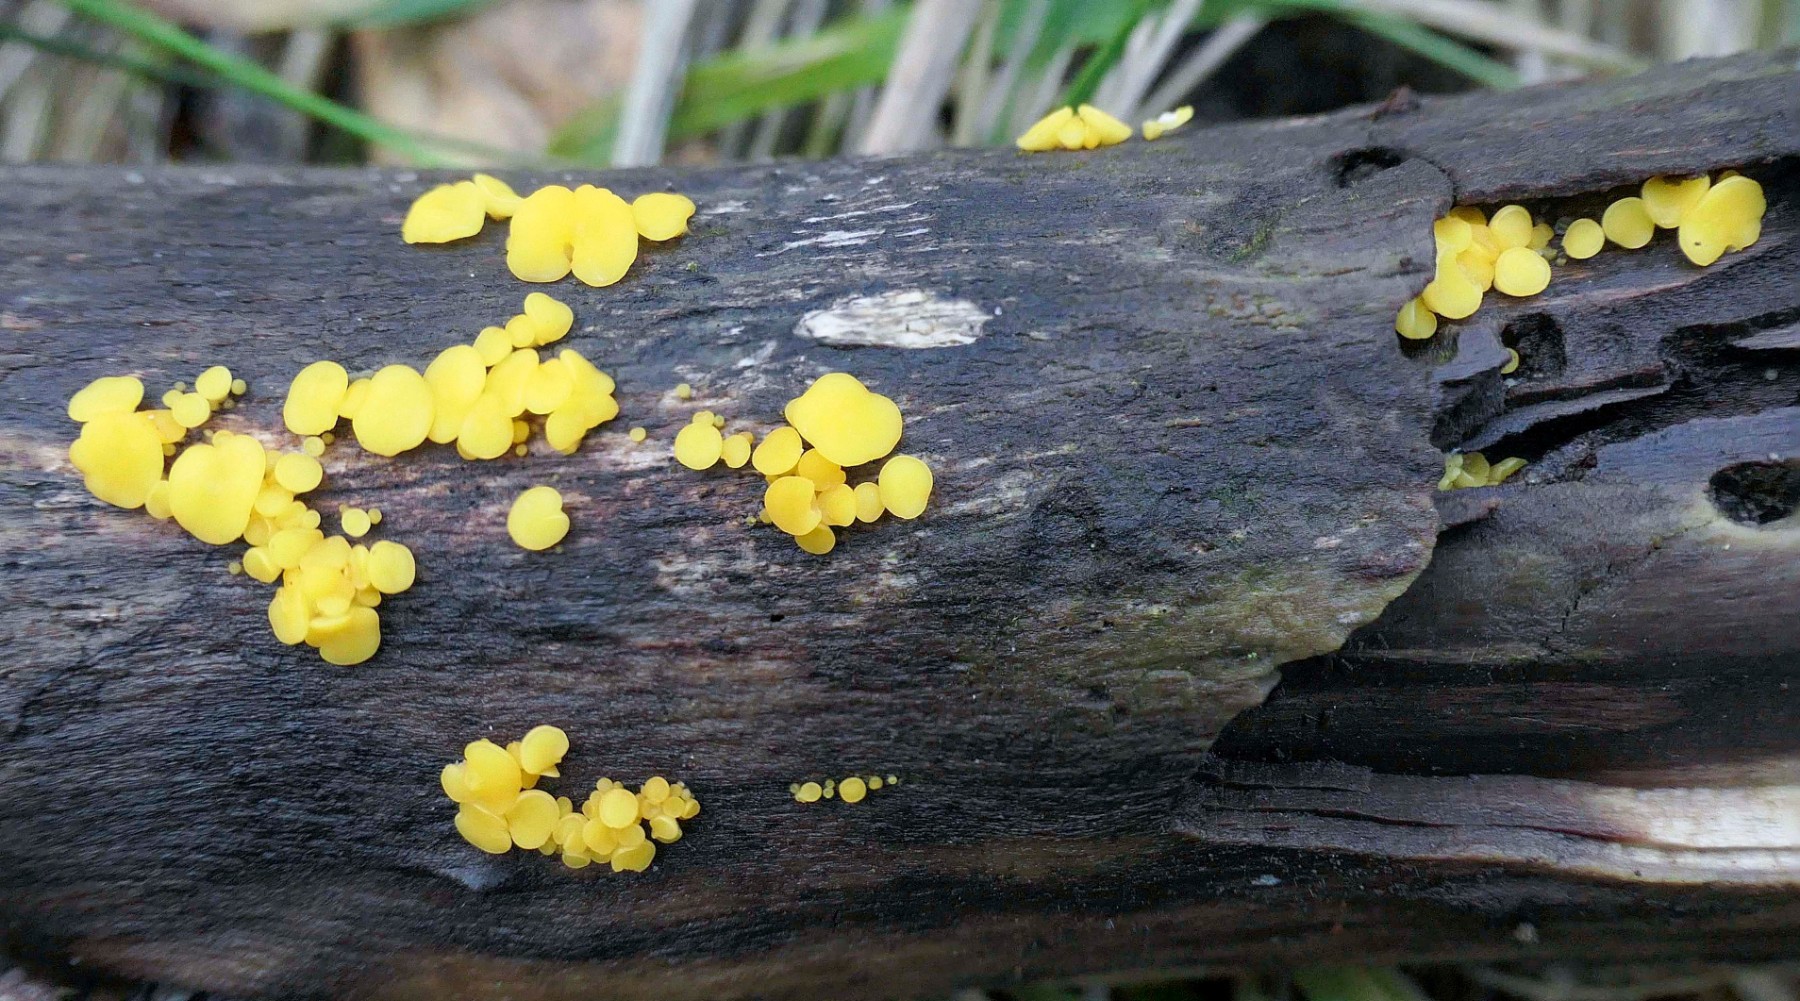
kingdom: Fungi
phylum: Ascomycota
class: Leotiomycetes
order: Helotiales
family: Pezizellaceae
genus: Calycina
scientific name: Calycina citrina
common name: almindelig gulskive
